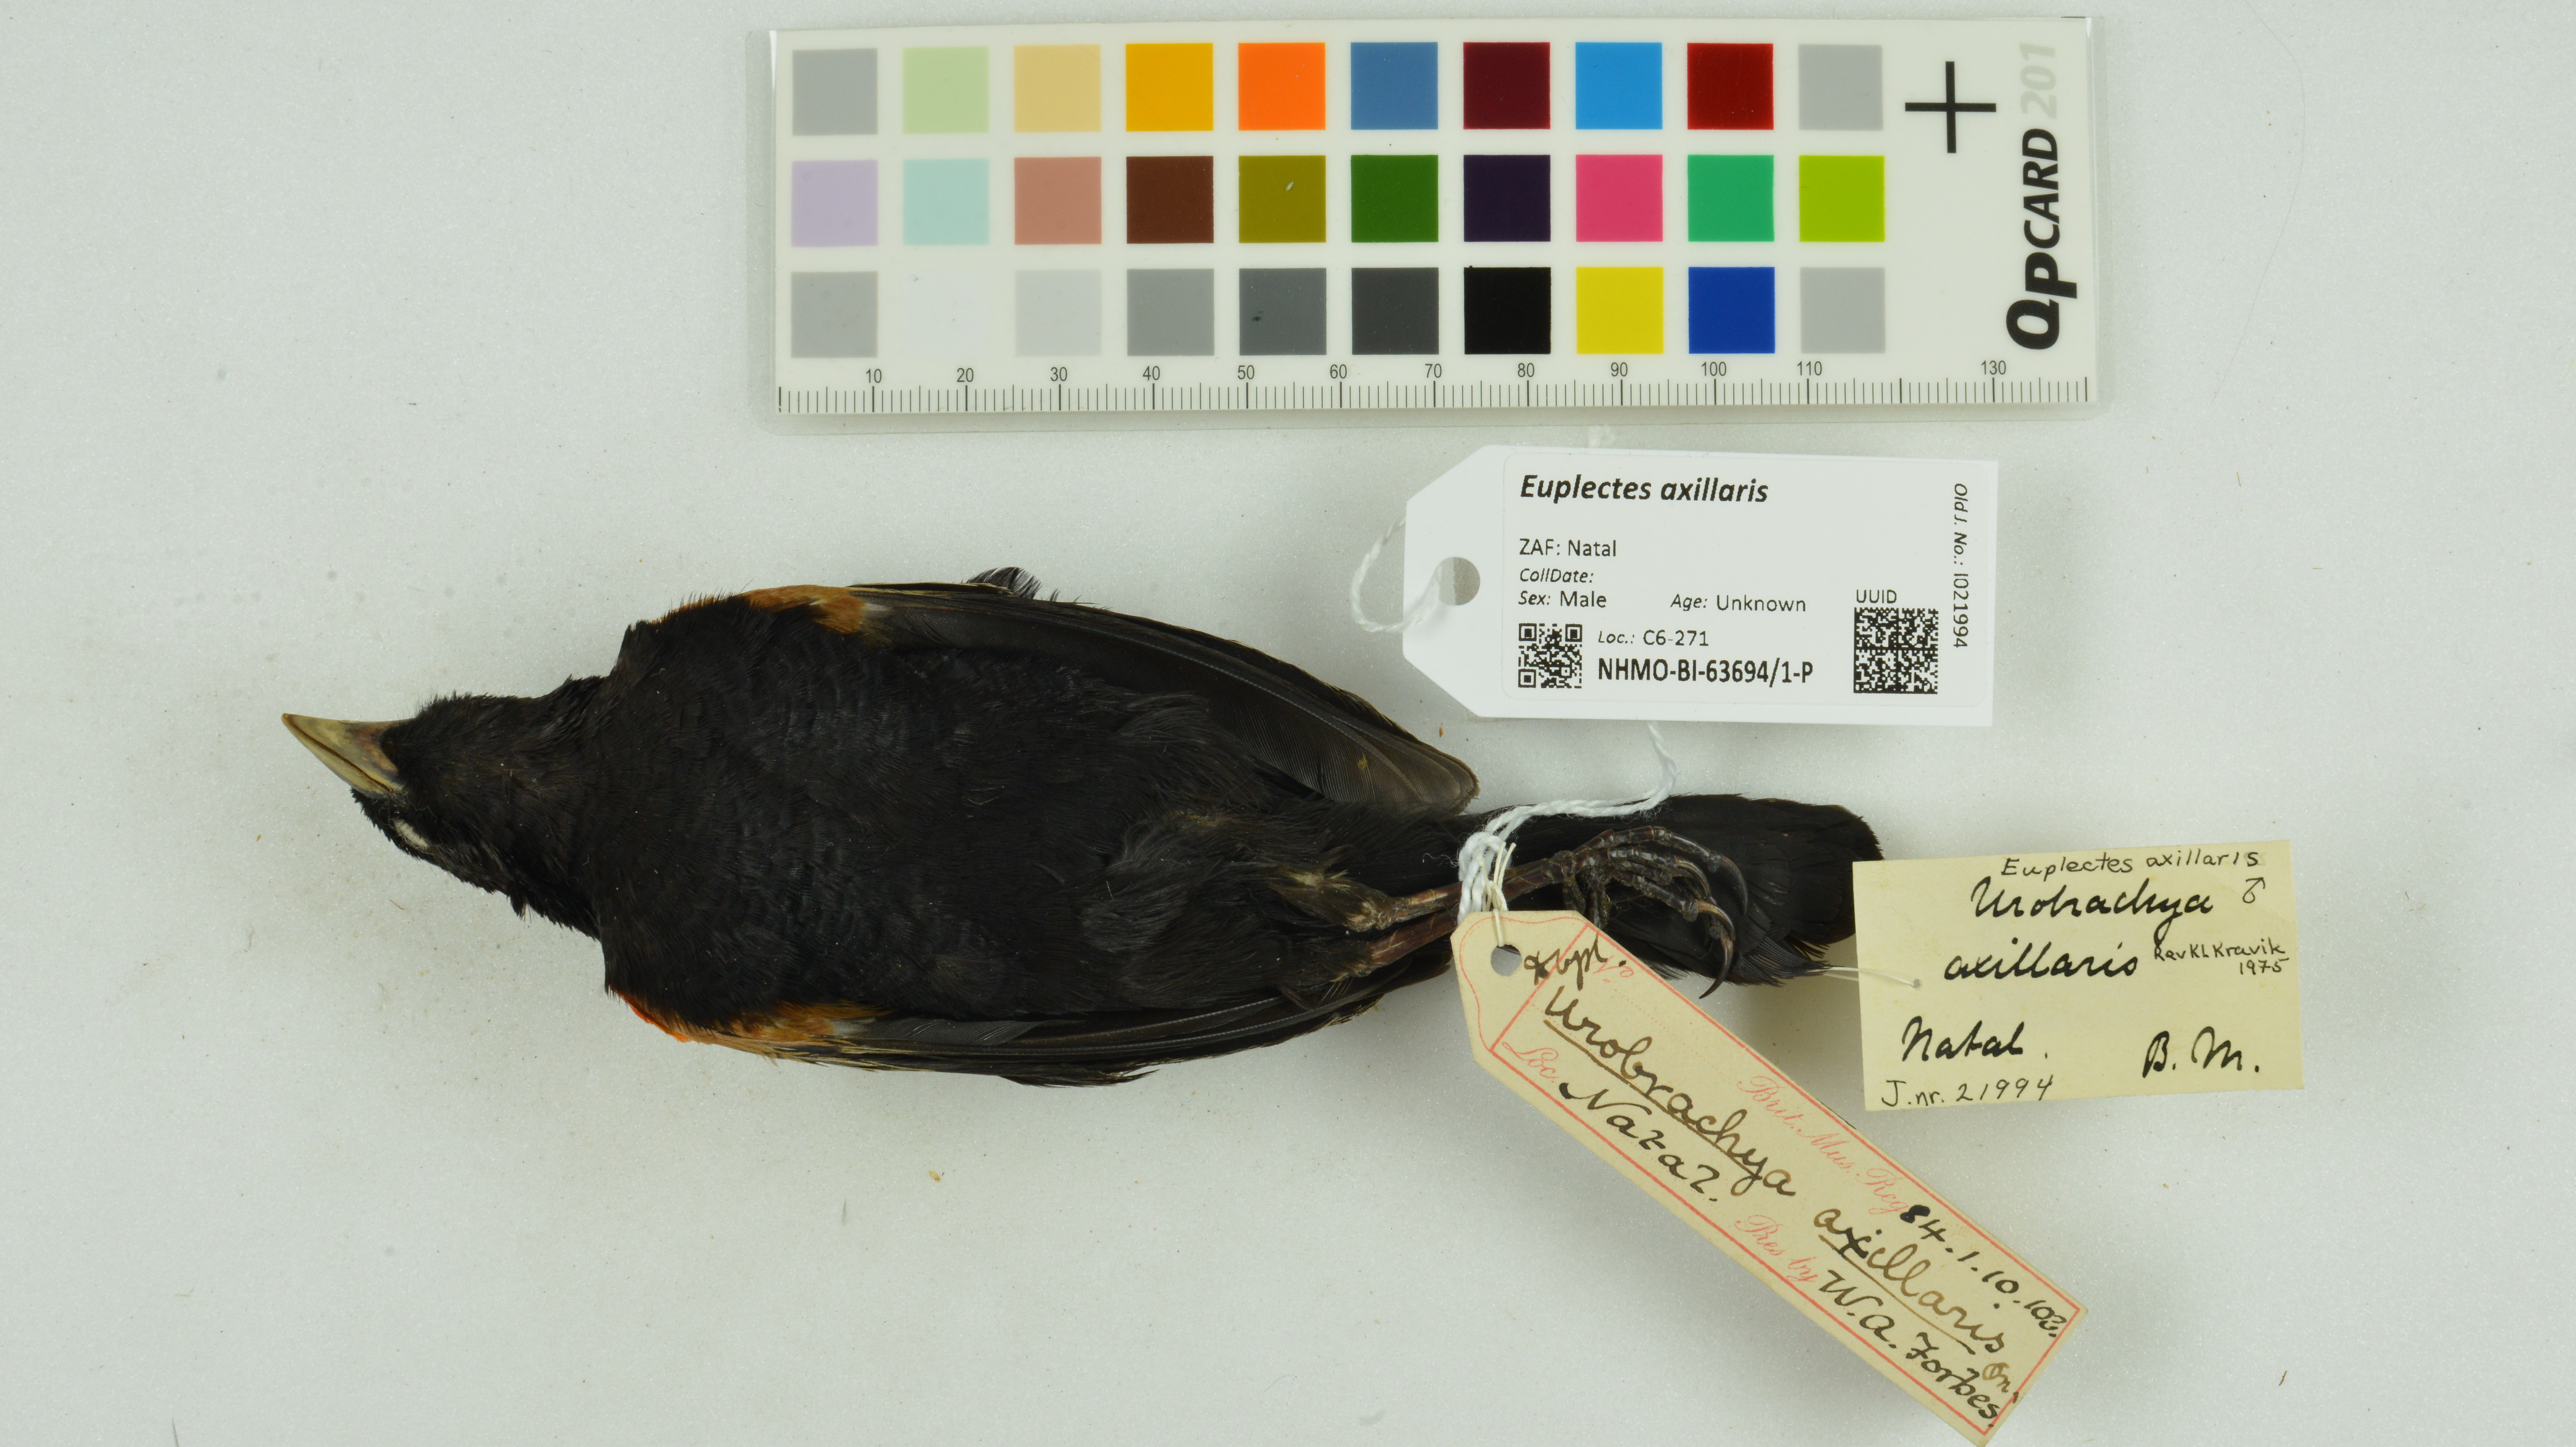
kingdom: Animalia
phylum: Chordata
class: Aves
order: Passeriformes
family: Ploceidae
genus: Euplectes
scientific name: Euplectes axillaris
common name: Fan-tailed widowbird
